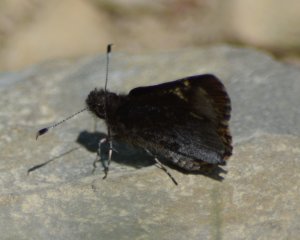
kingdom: Animalia
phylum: Arthropoda
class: Insecta
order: Lepidoptera
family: Hesperiidae
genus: Mastor
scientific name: Mastor vialis
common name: Common Roadside-Skipper
